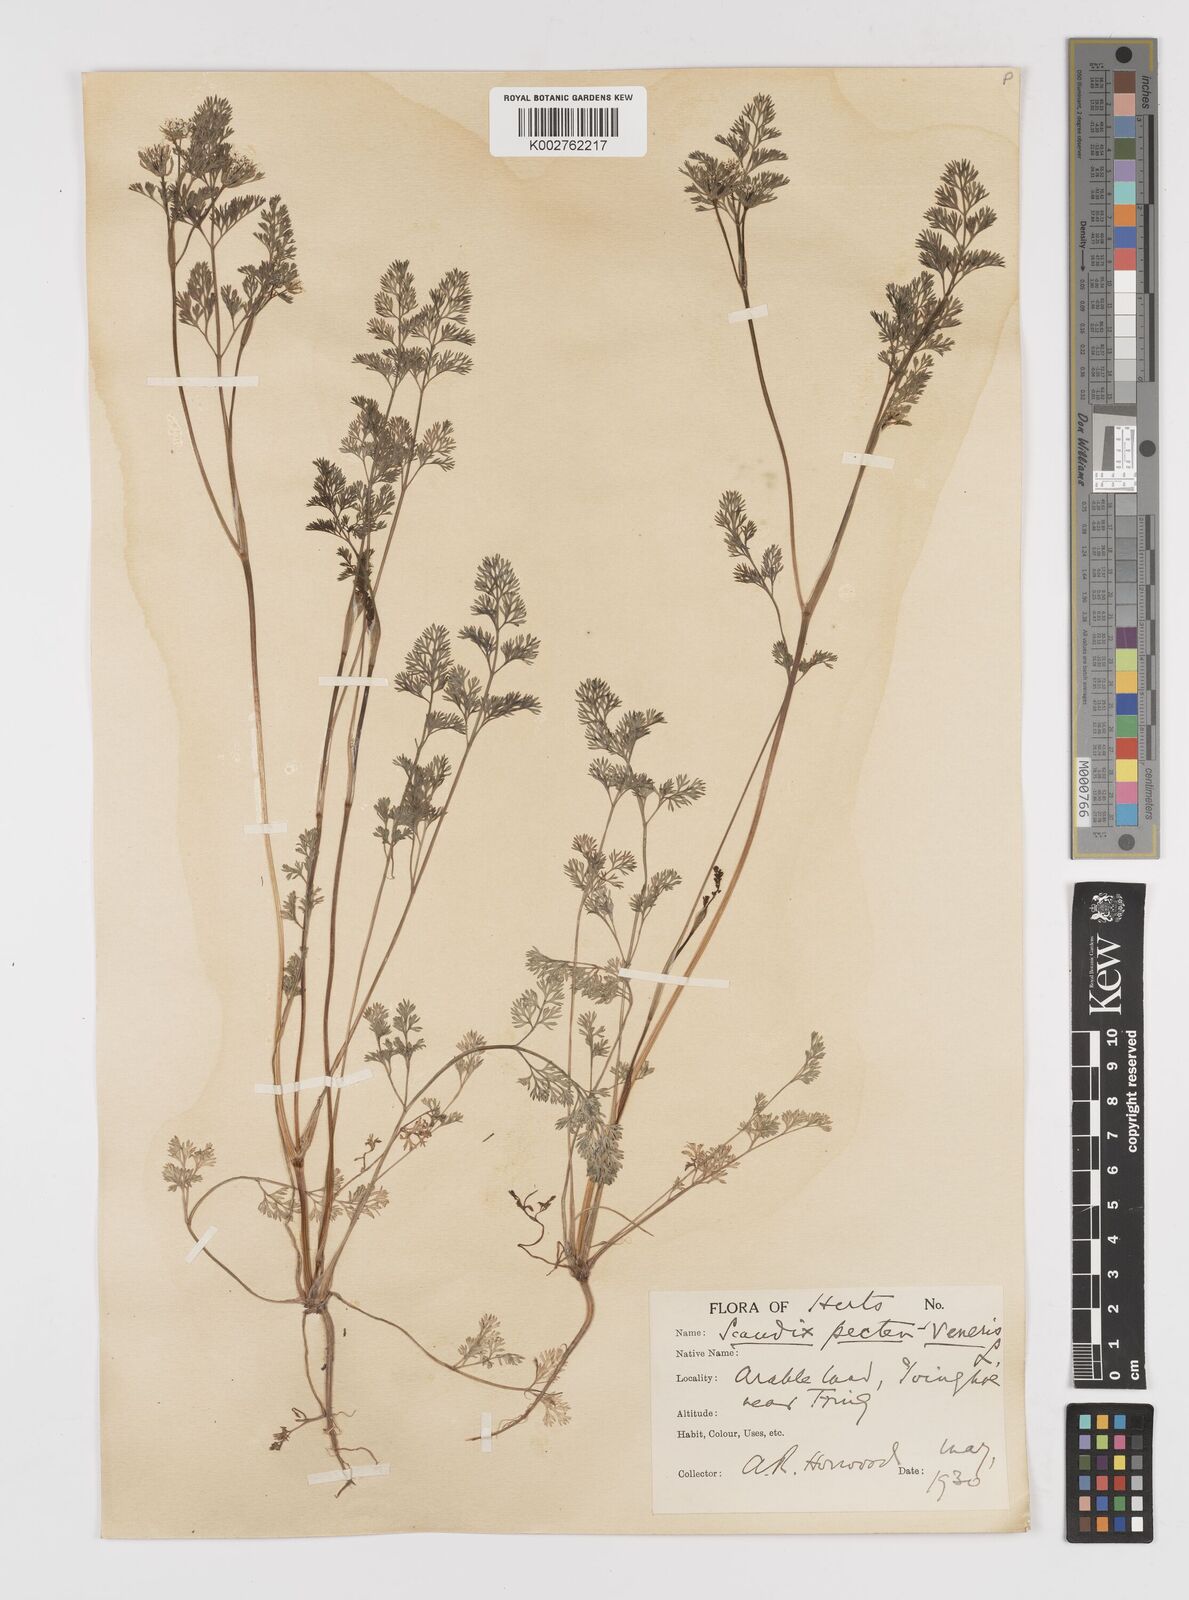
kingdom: Plantae
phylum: Tracheophyta
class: Magnoliopsida
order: Apiales
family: Apiaceae
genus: Scandix
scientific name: Scandix pecten-veneris
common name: Shepherd's-needle
